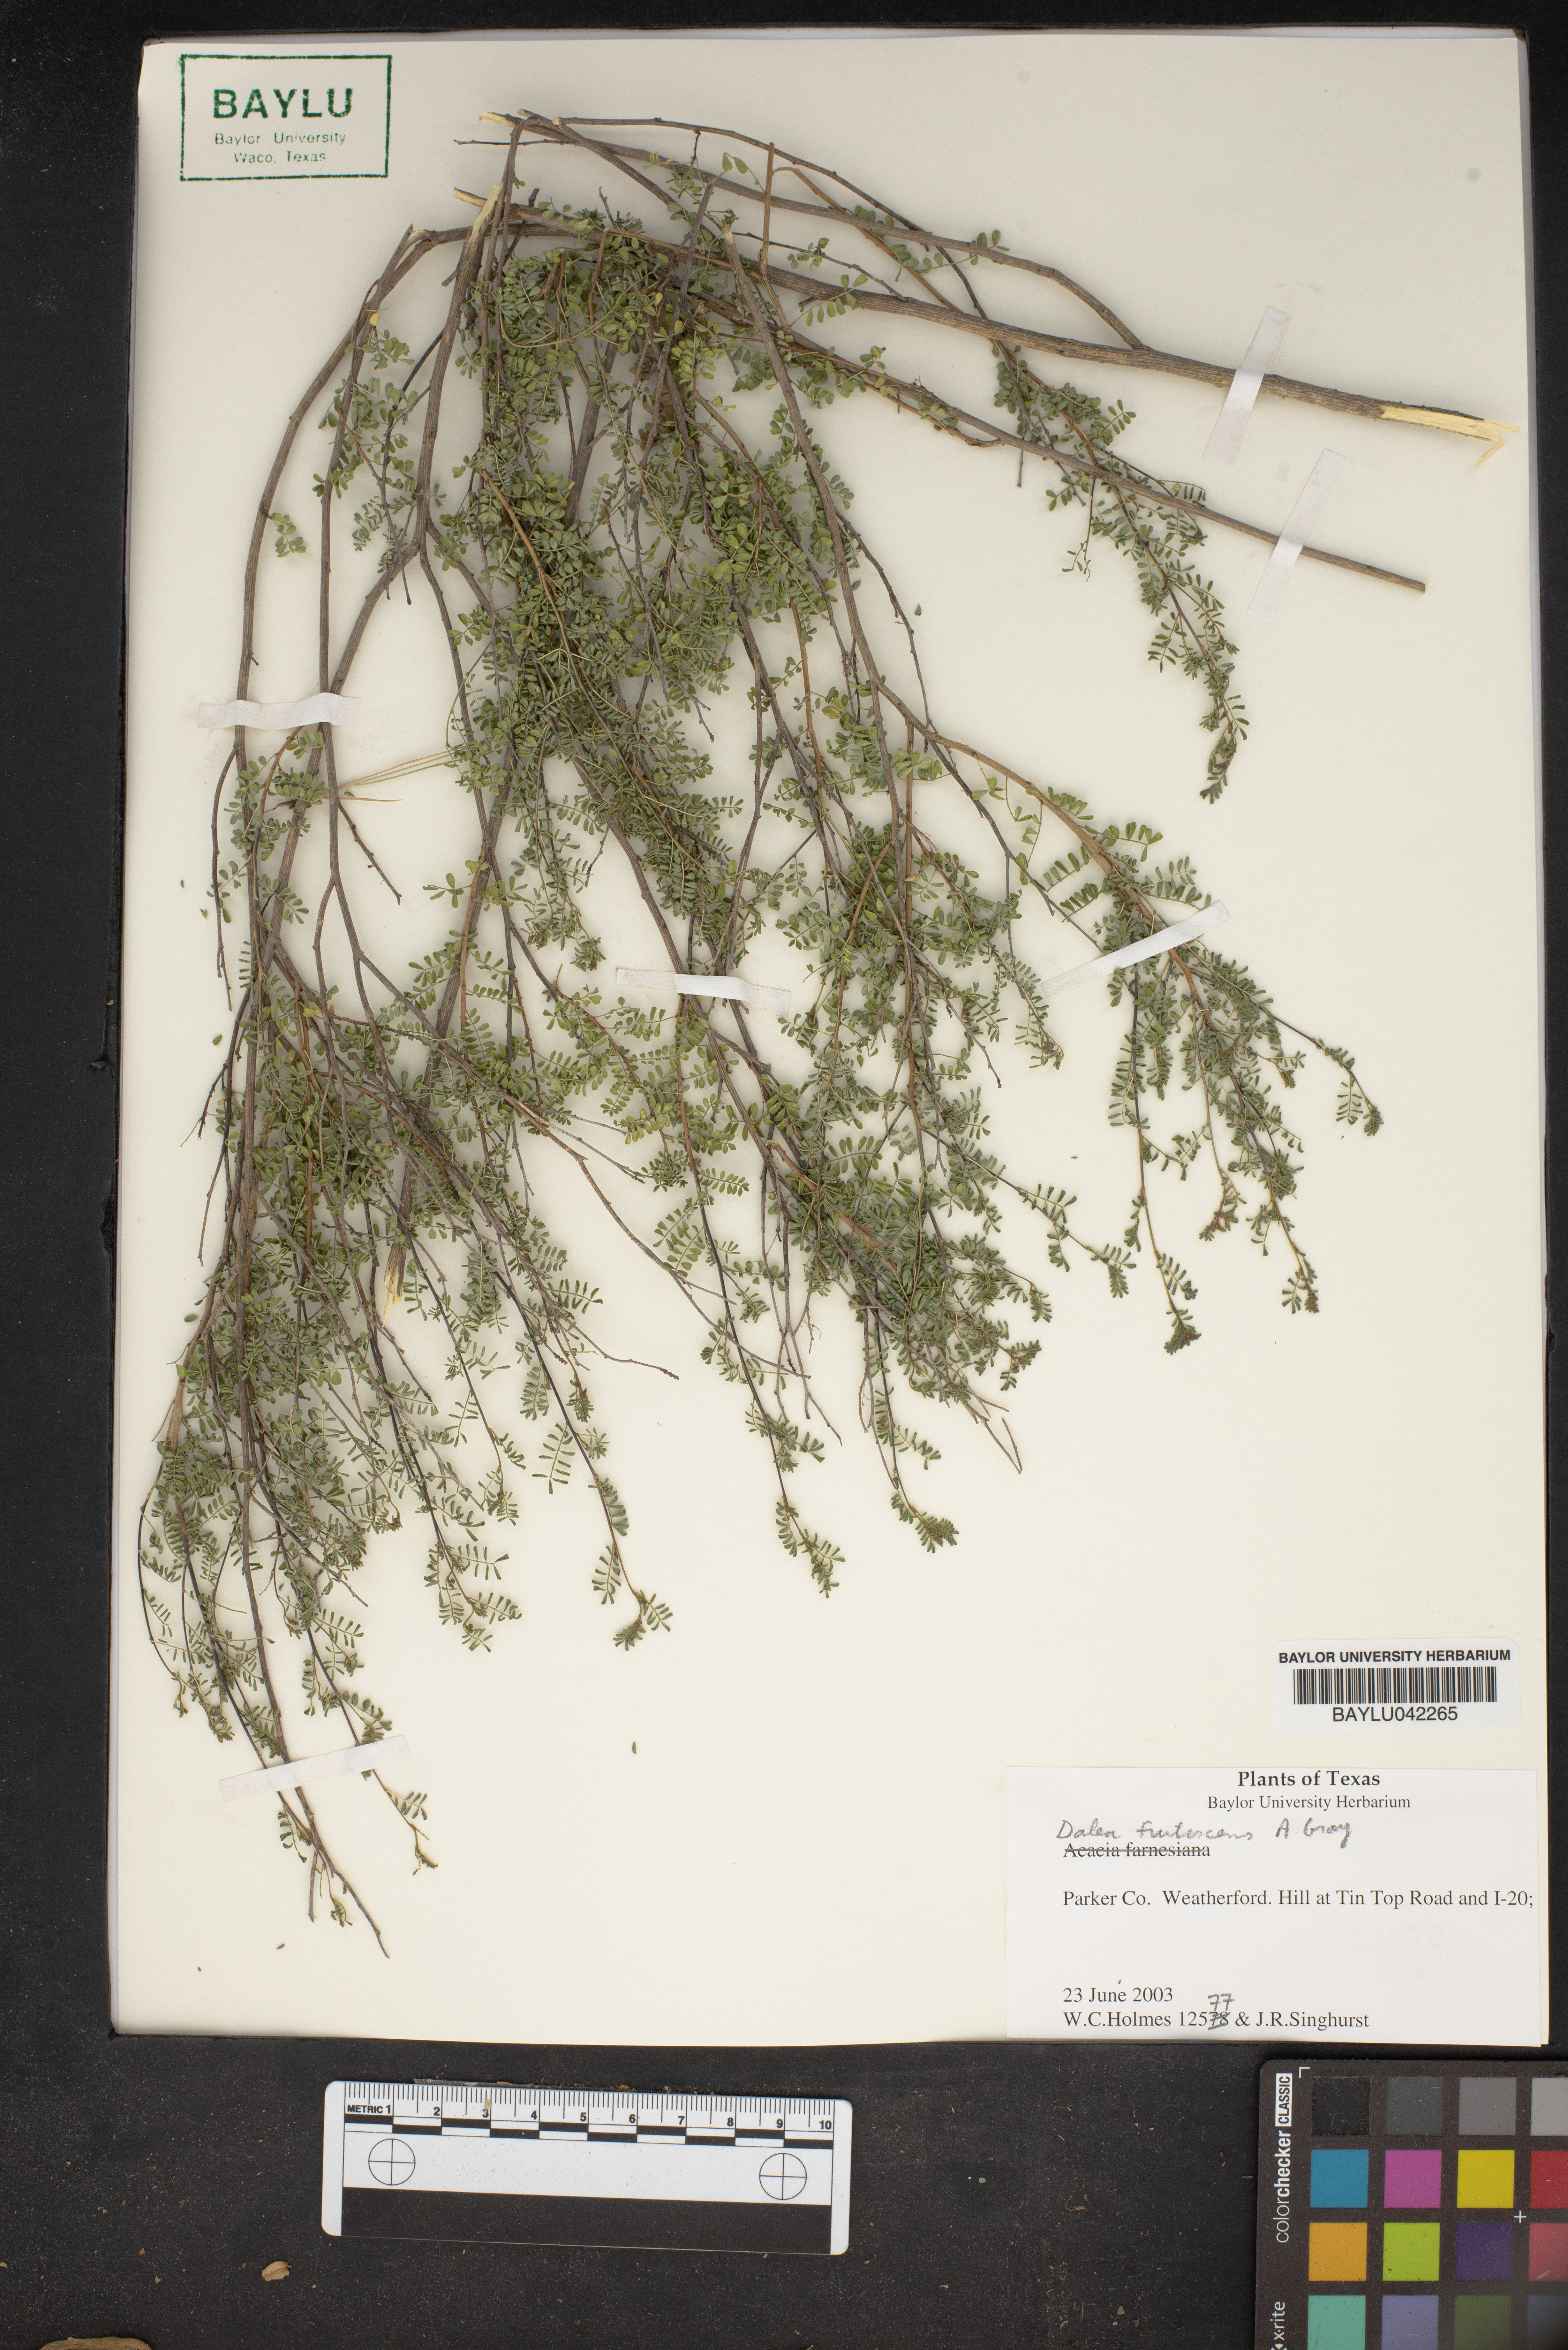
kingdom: Plantae
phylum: Tracheophyta
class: Magnoliopsida
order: Fabales
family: Fabaceae
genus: Dalea
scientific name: Dalea frutescens
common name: Black dalea
